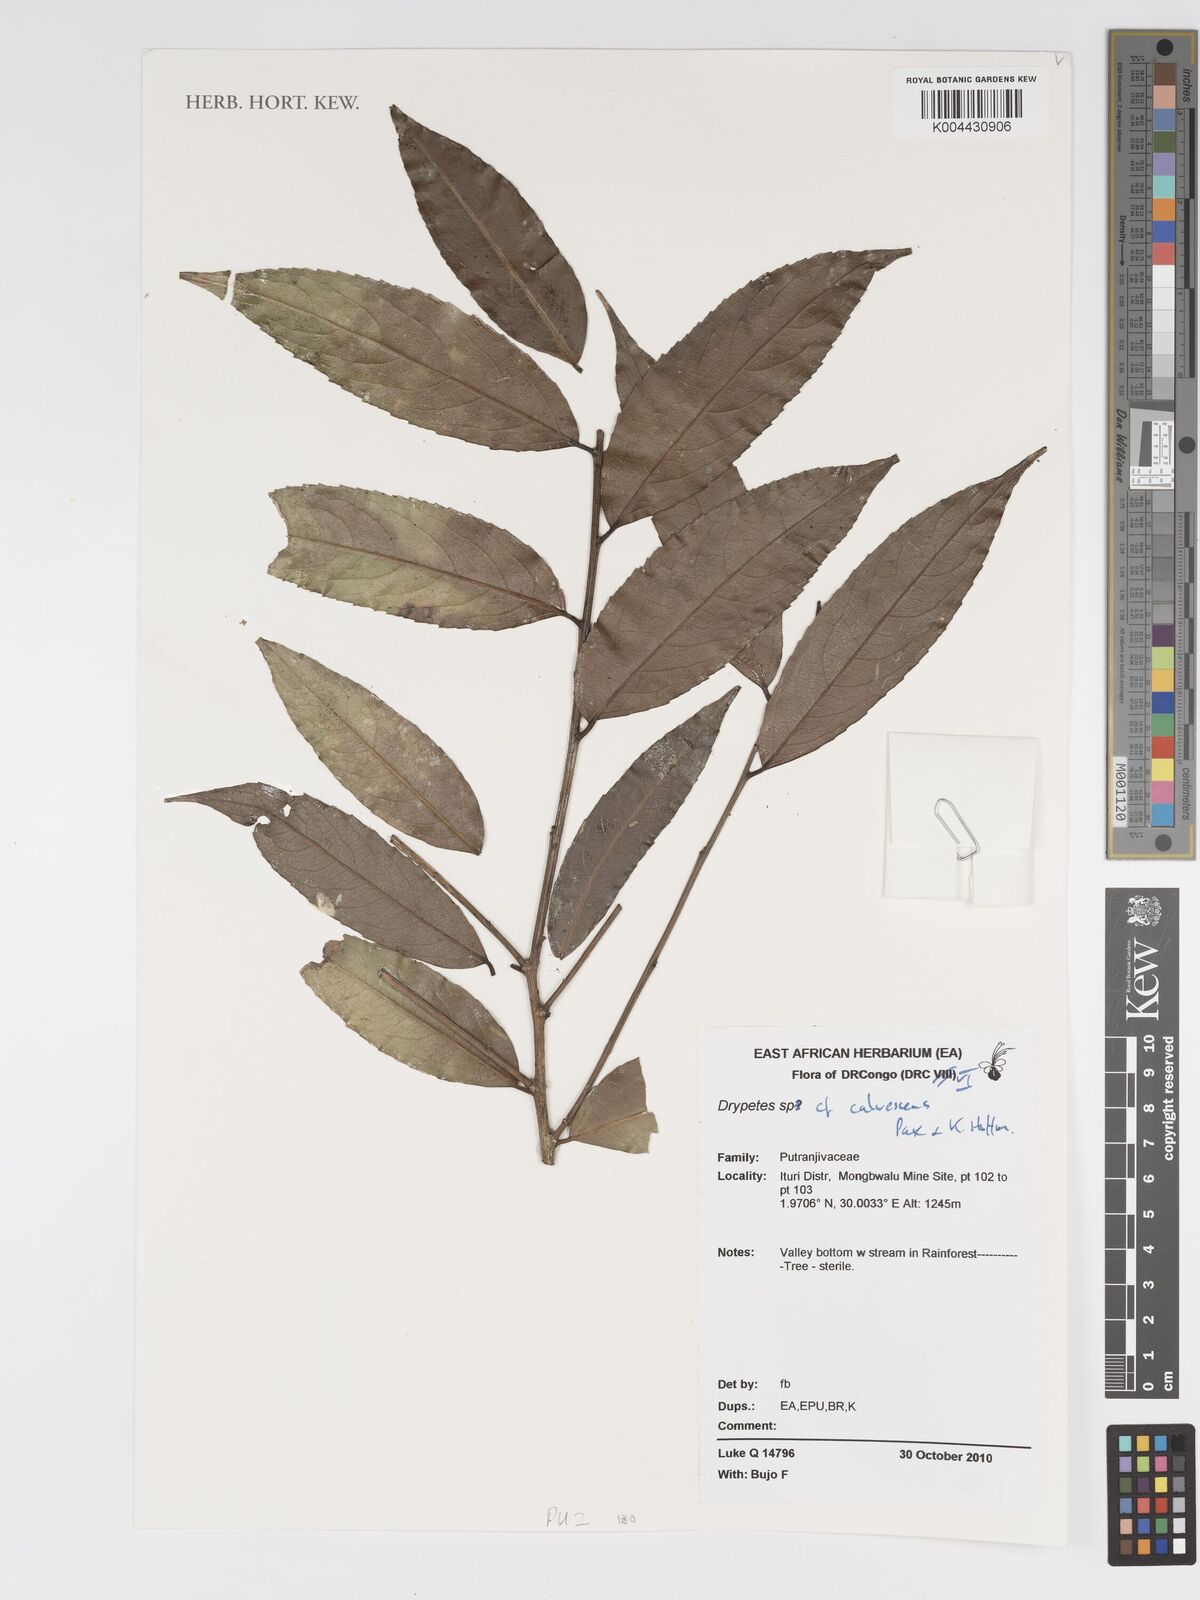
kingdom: Plantae
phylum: Tracheophyta
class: Magnoliopsida
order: Malpighiales
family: Putranjivaceae
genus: Drypetes
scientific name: Drypetes calvescens
